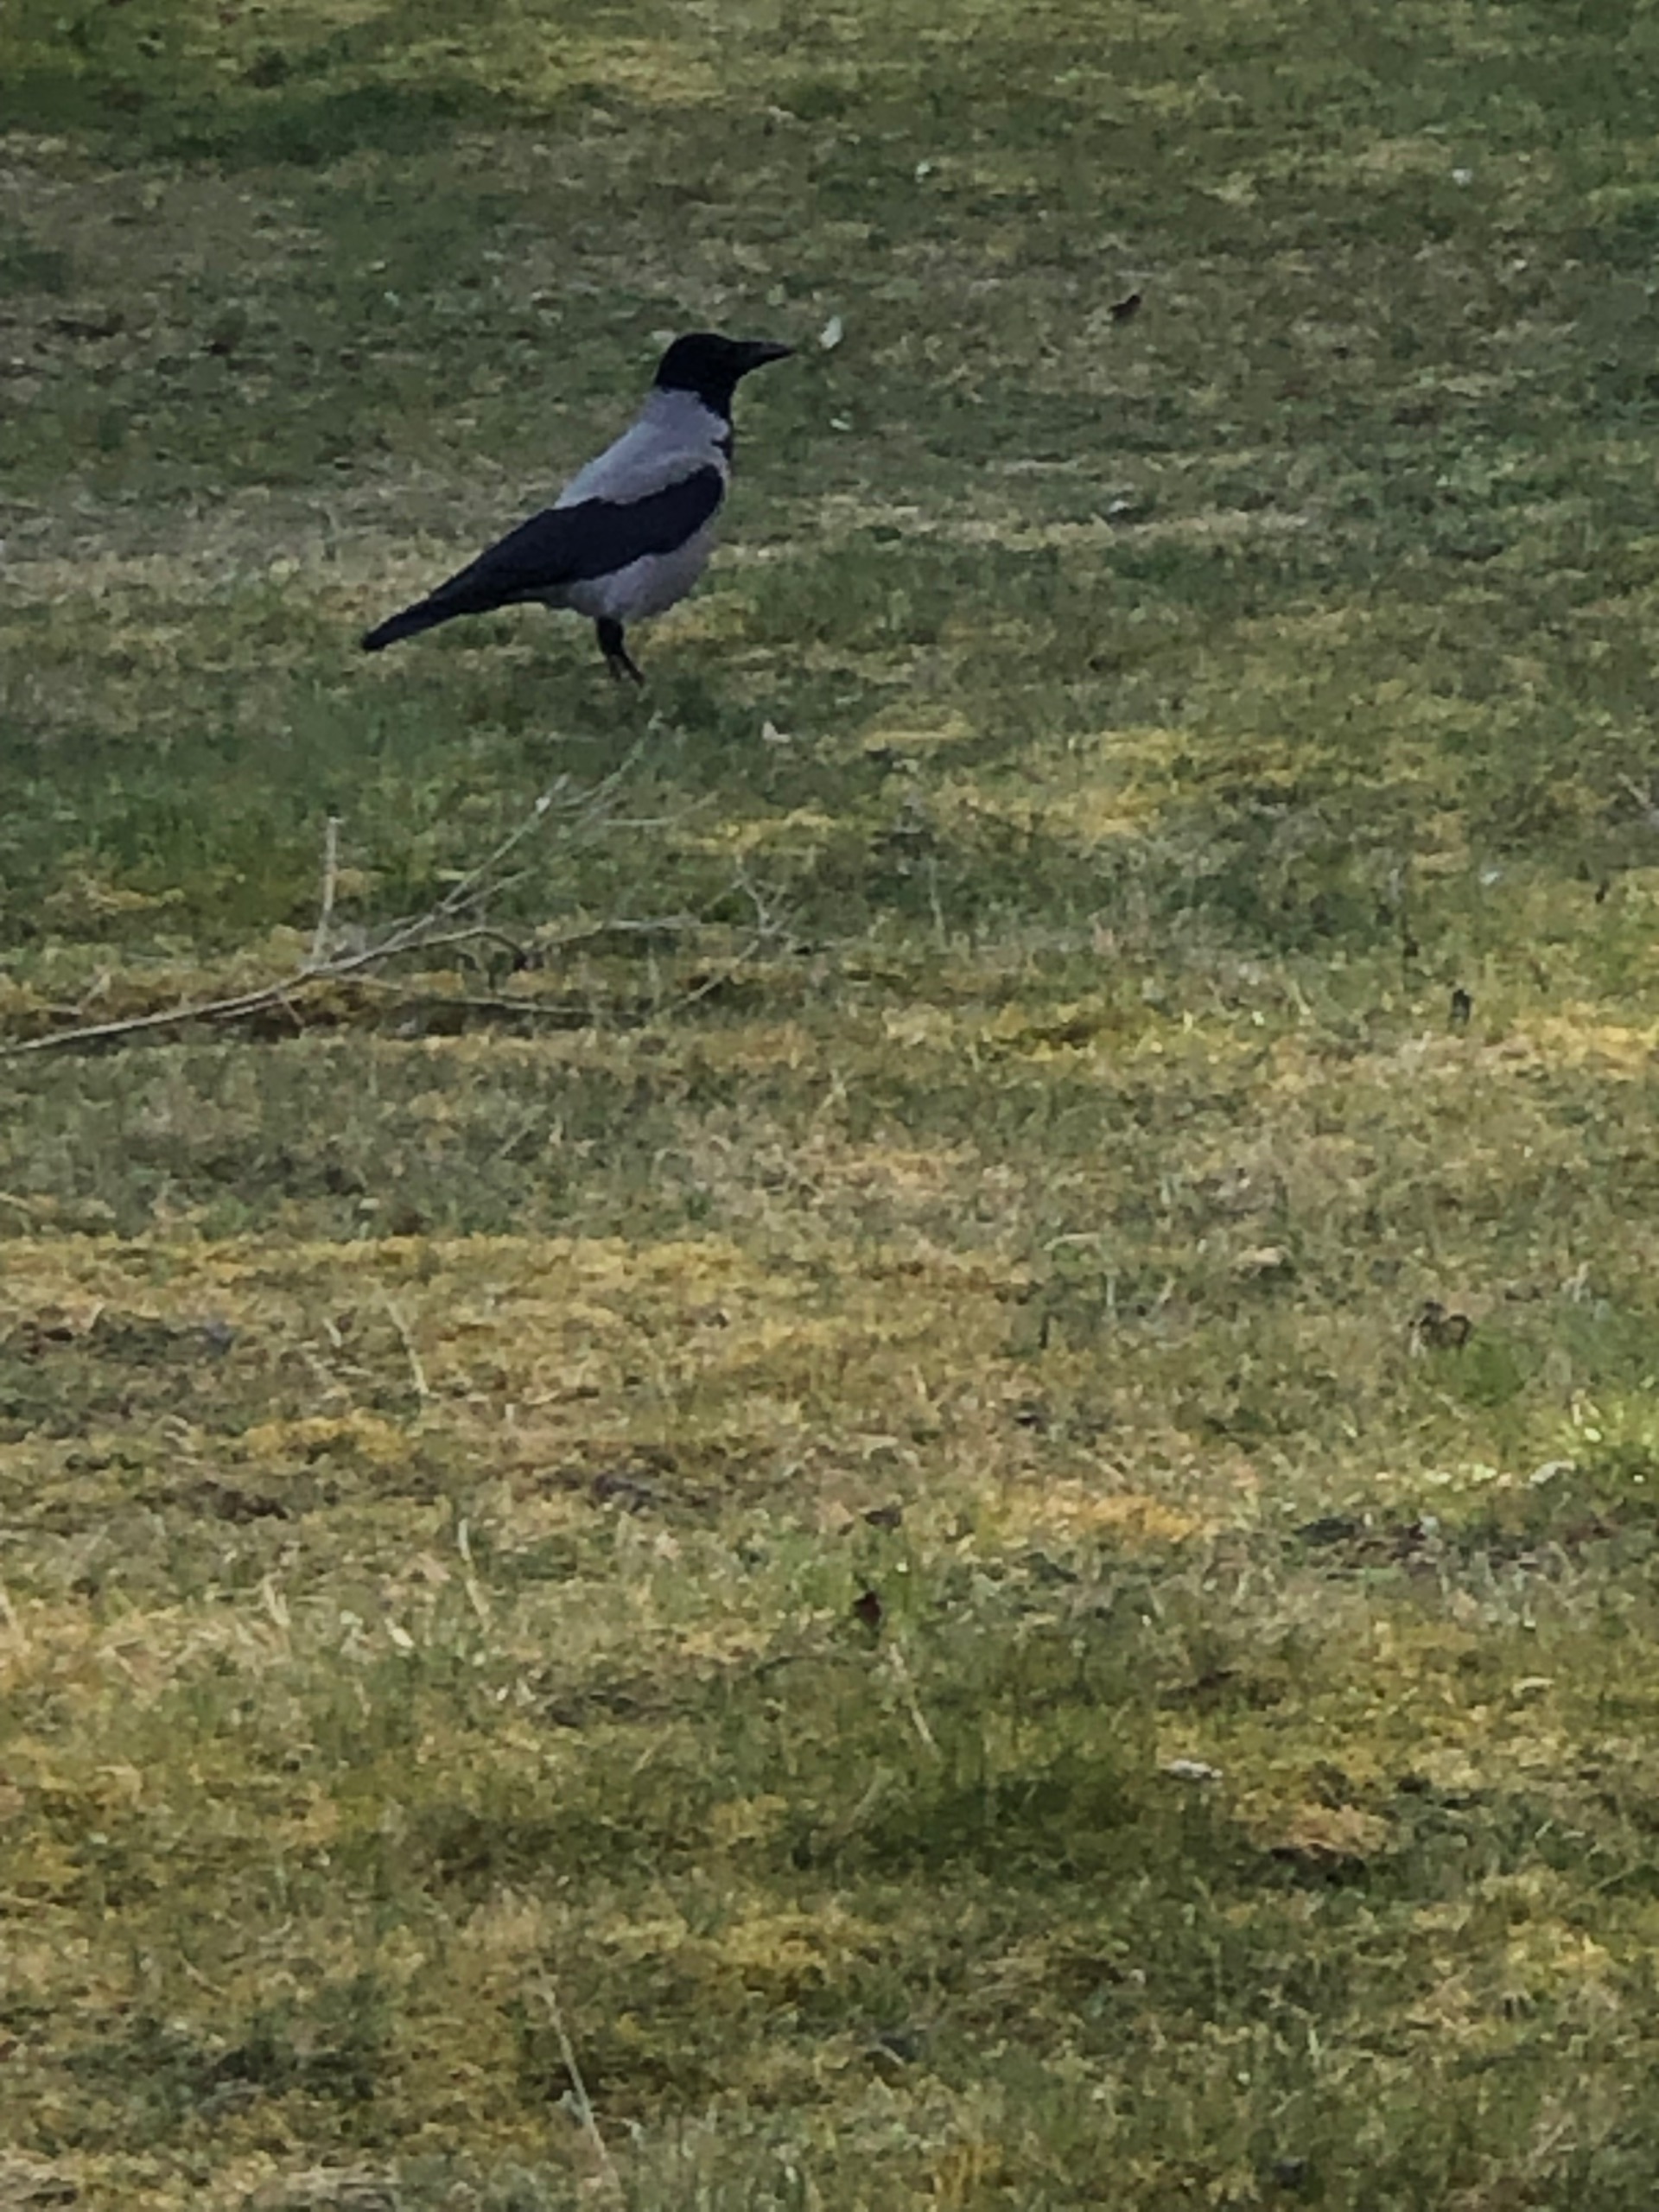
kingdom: Animalia
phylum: Chordata
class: Aves
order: Passeriformes
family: Corvidae
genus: Corvus
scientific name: Corvus cornix
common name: Gråkrage
